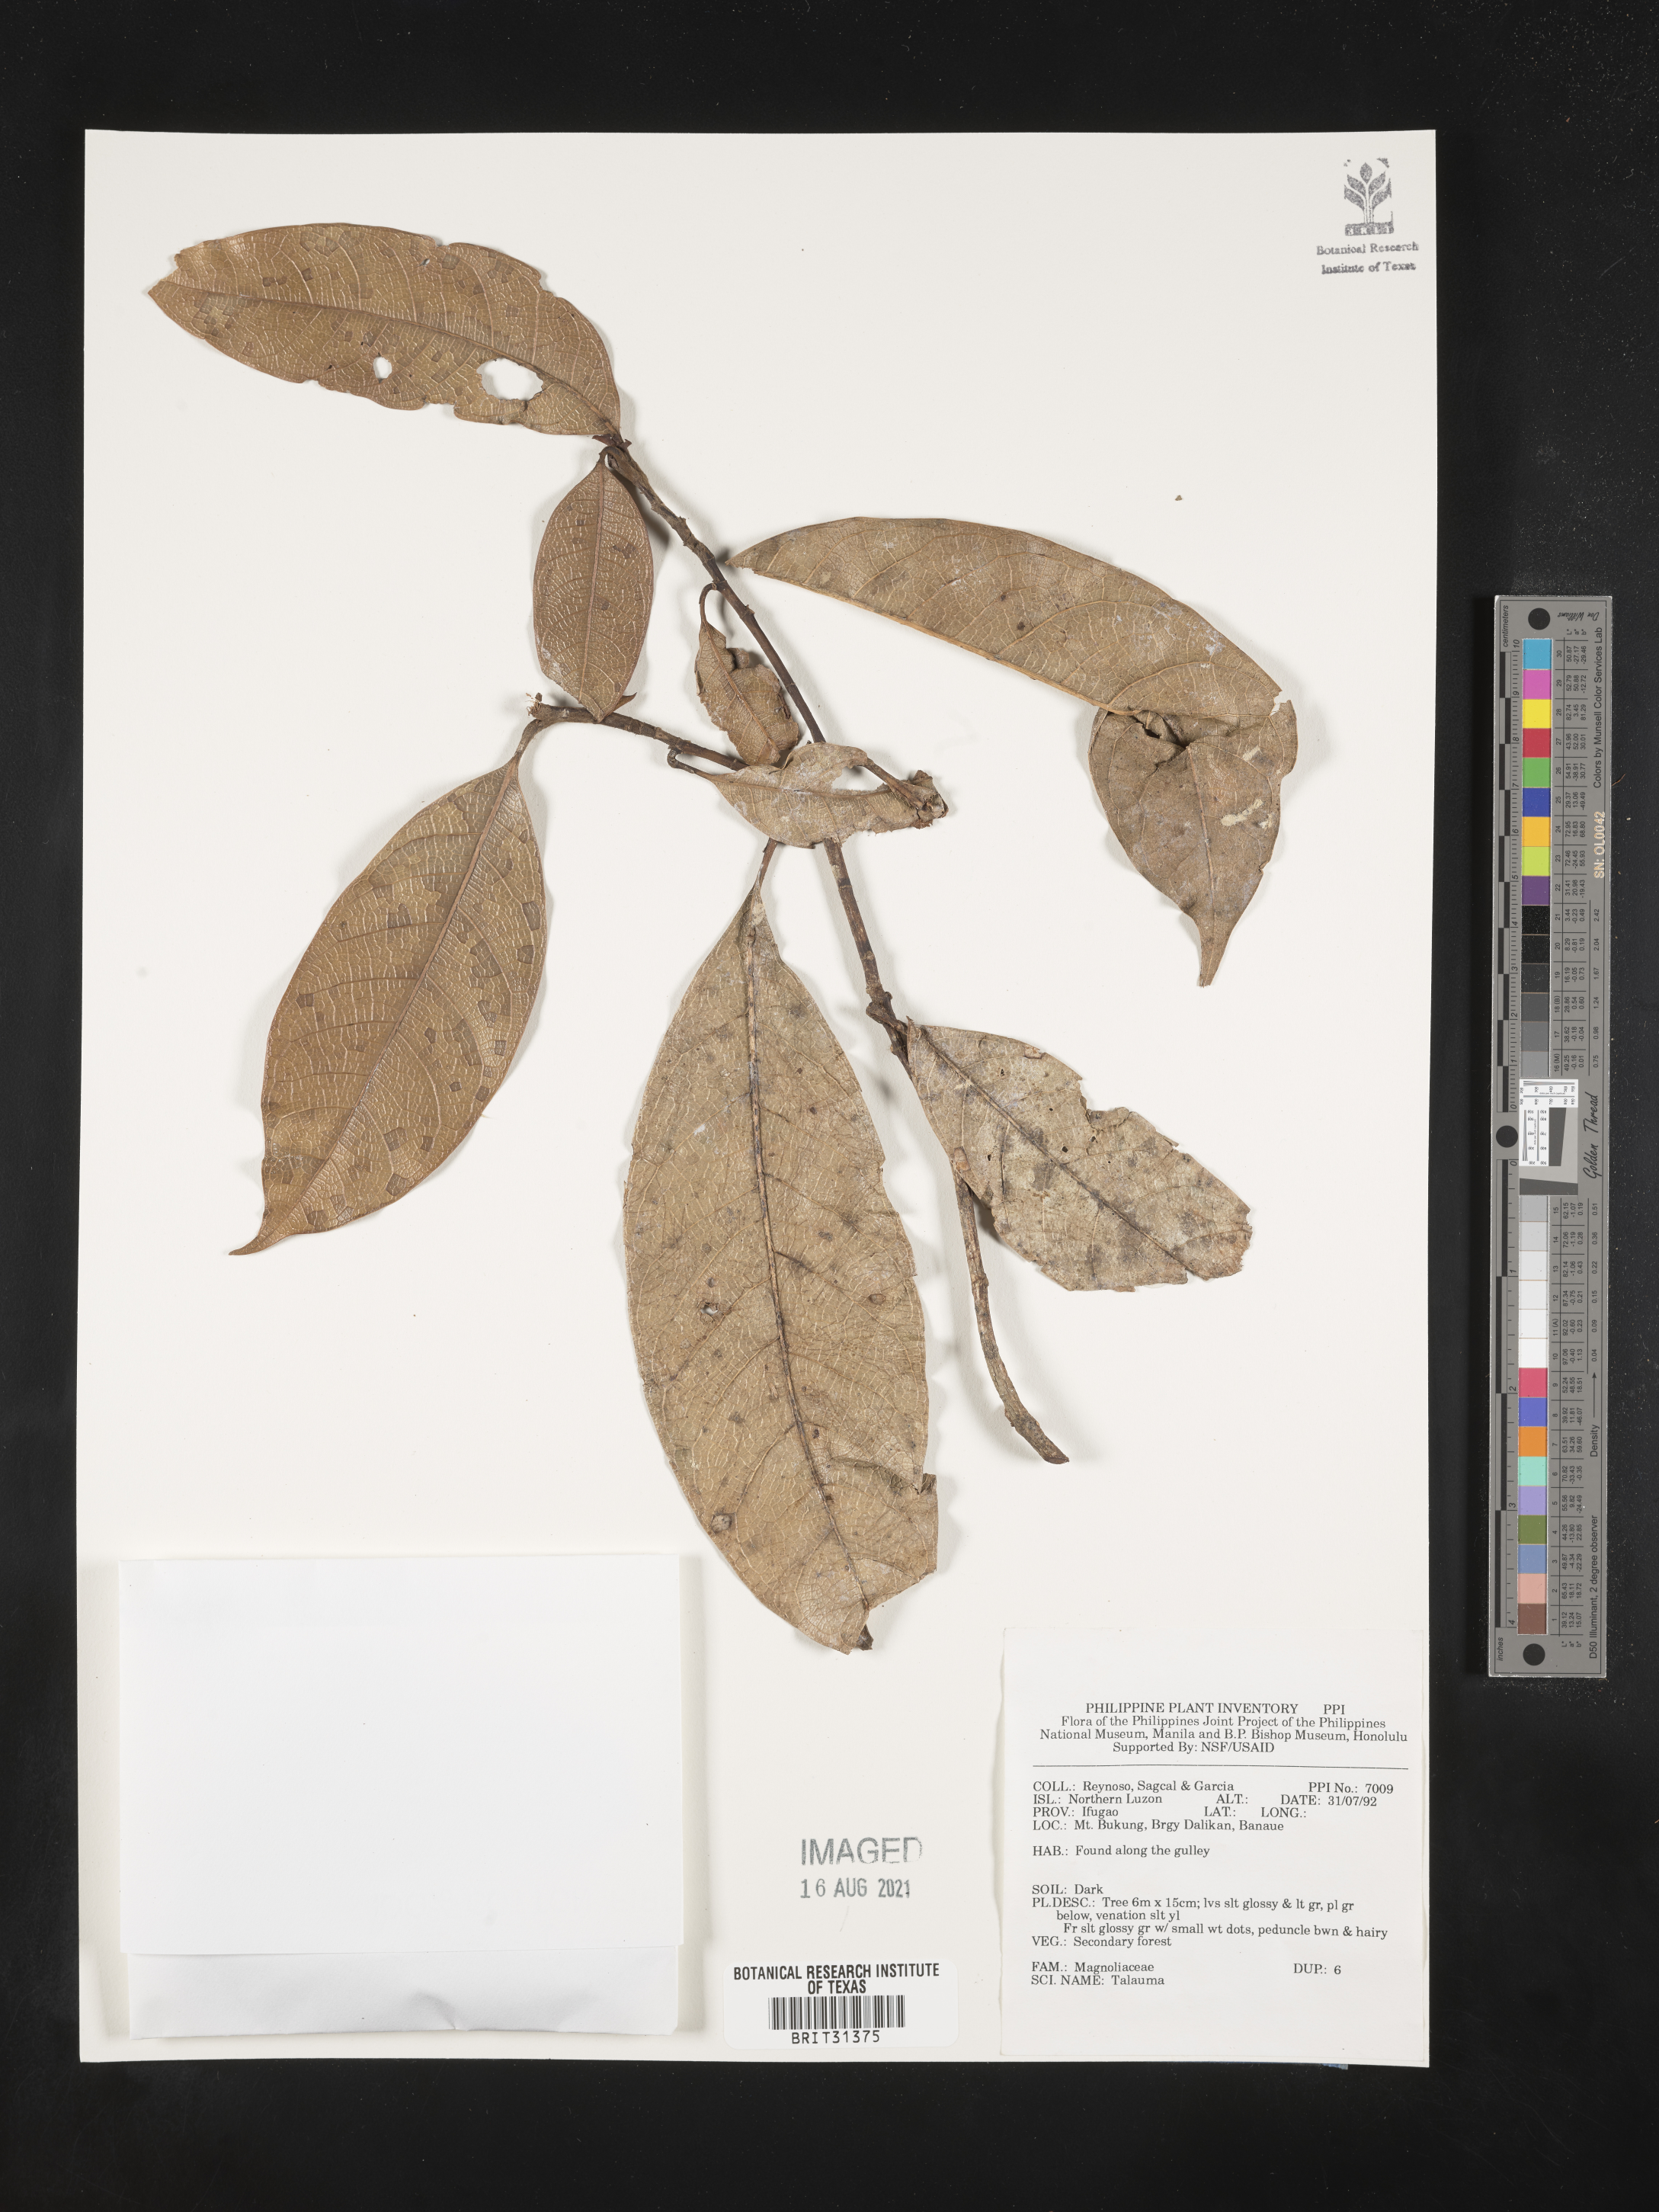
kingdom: Plantae
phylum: Tracheophyta
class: Magnoliopsida
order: Magnoliales
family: Magnoliaceae
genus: Magnolia
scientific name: Magnolia Talauma spec
